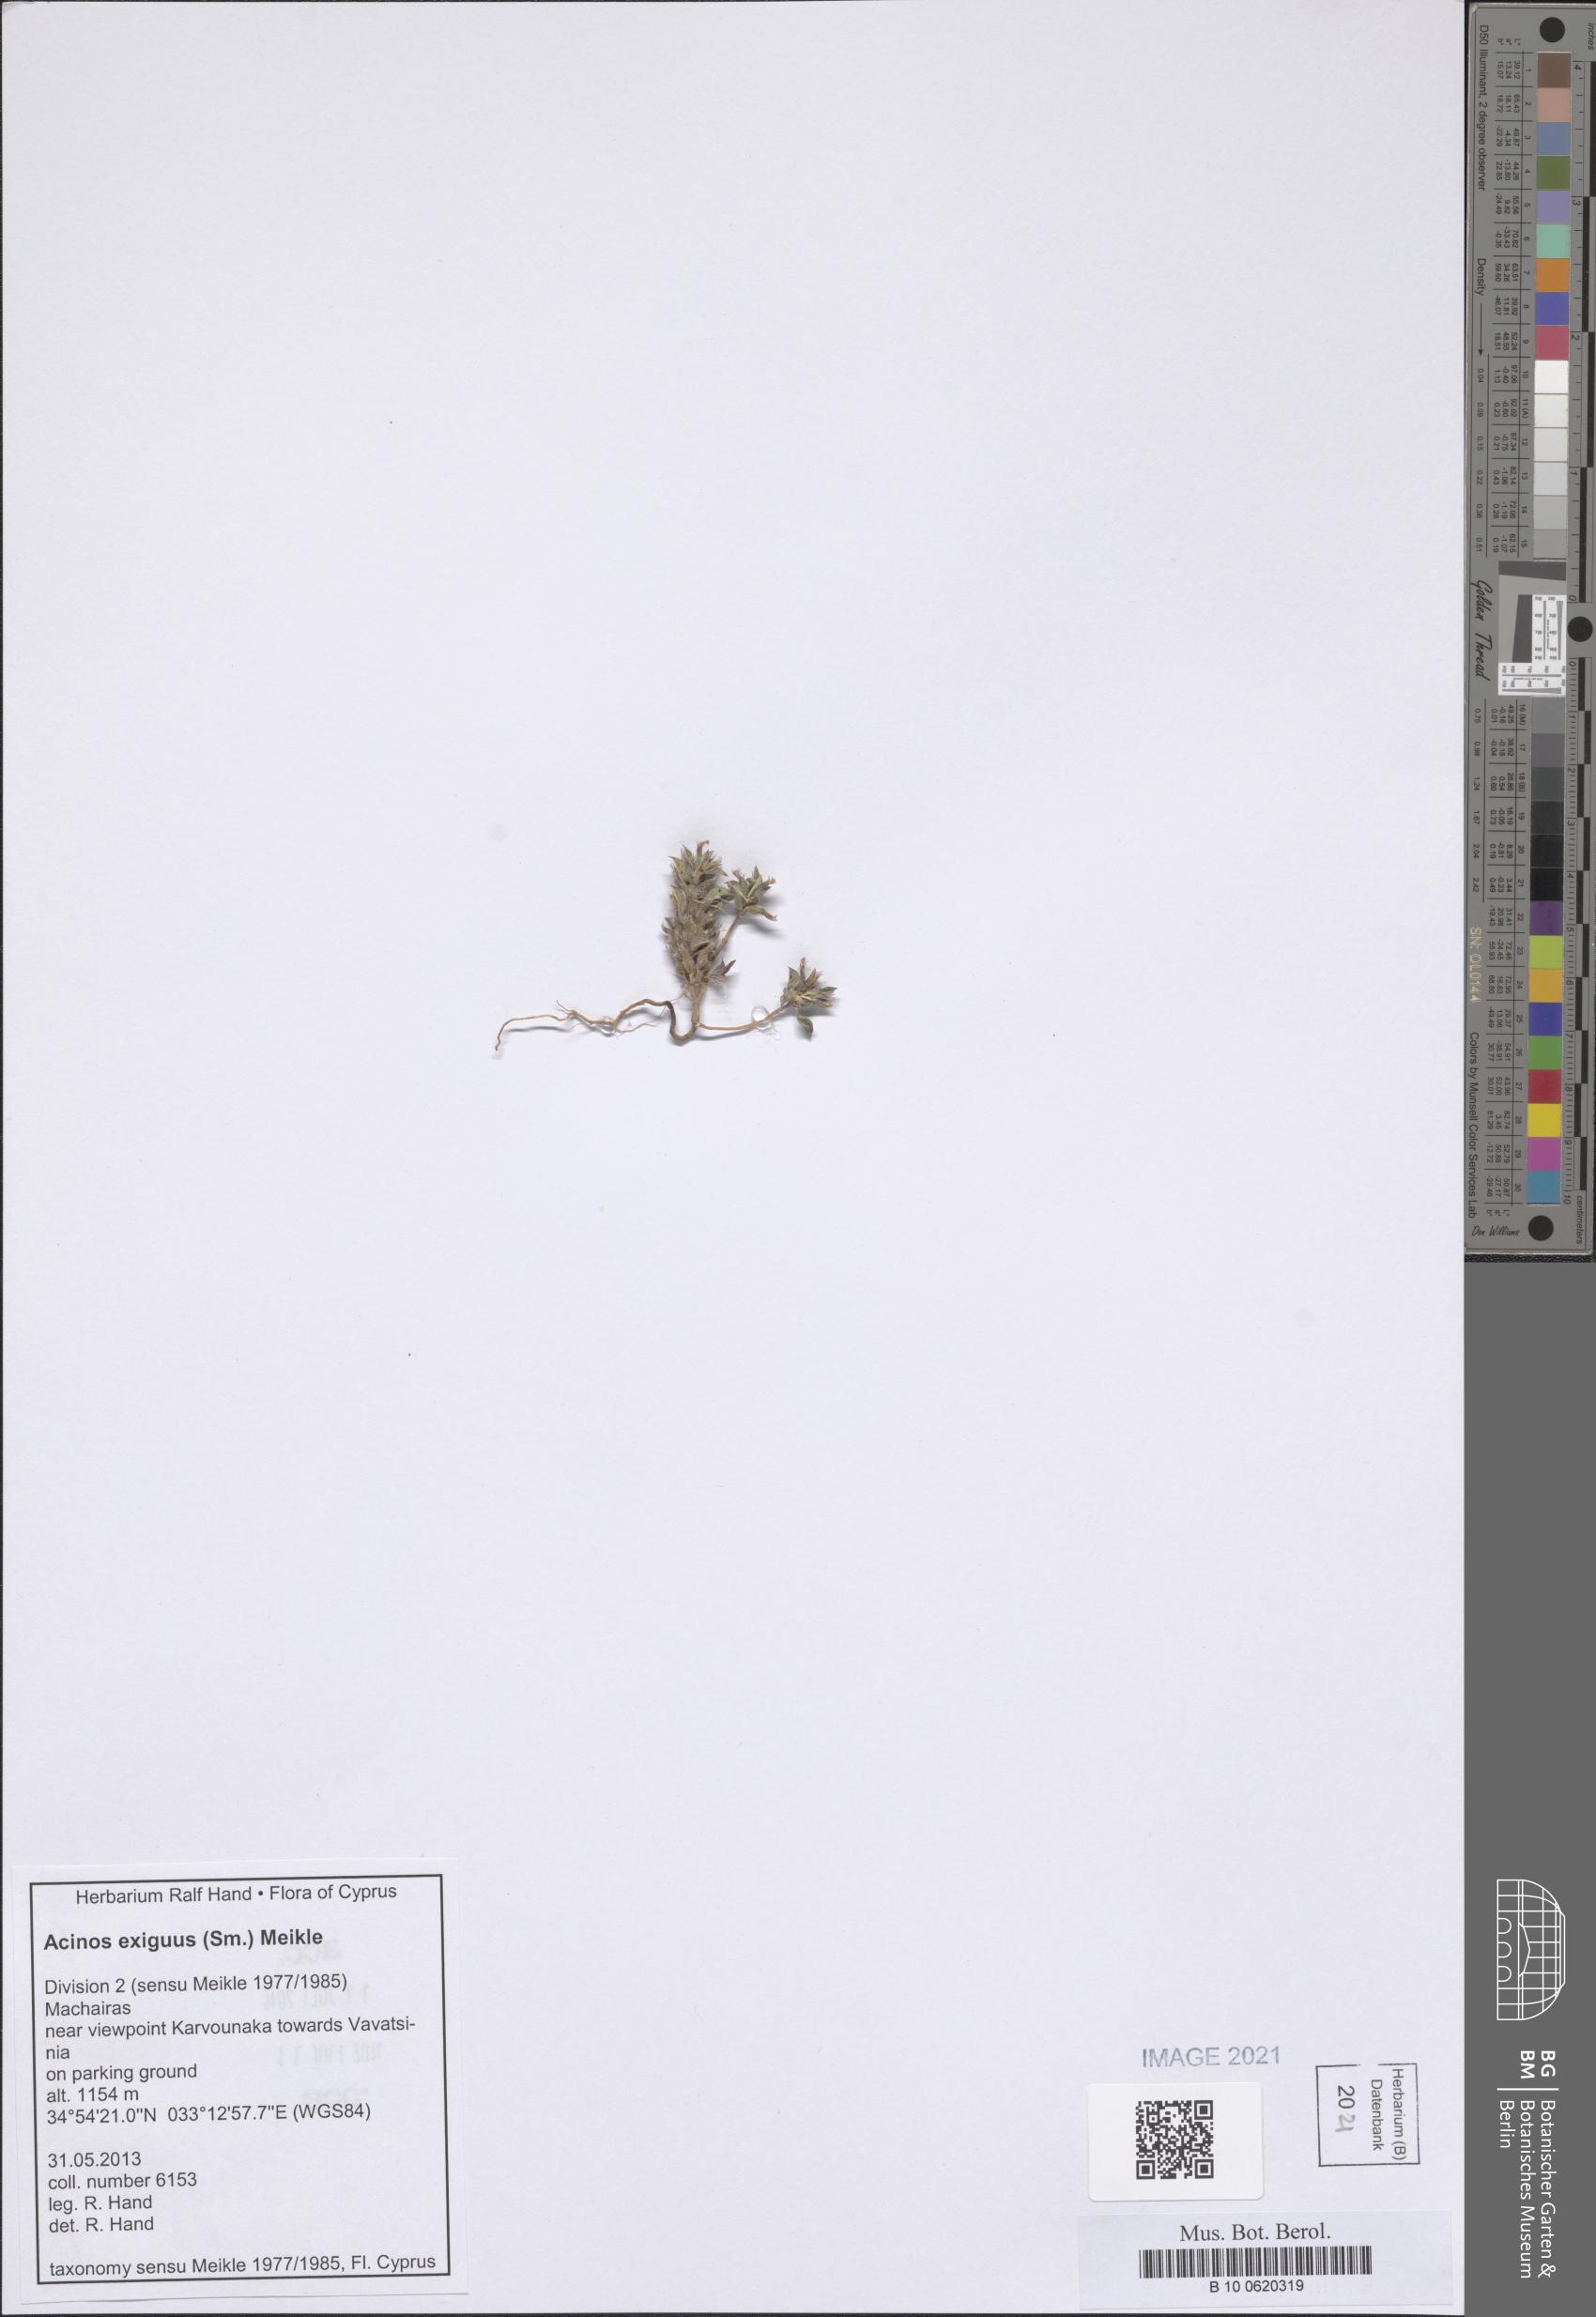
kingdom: Plantae
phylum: Tracheophyta
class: Magnoliopsida
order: Lamiales
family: Lamiaceae
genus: Clinopodium
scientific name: Clinopodium graveolens
